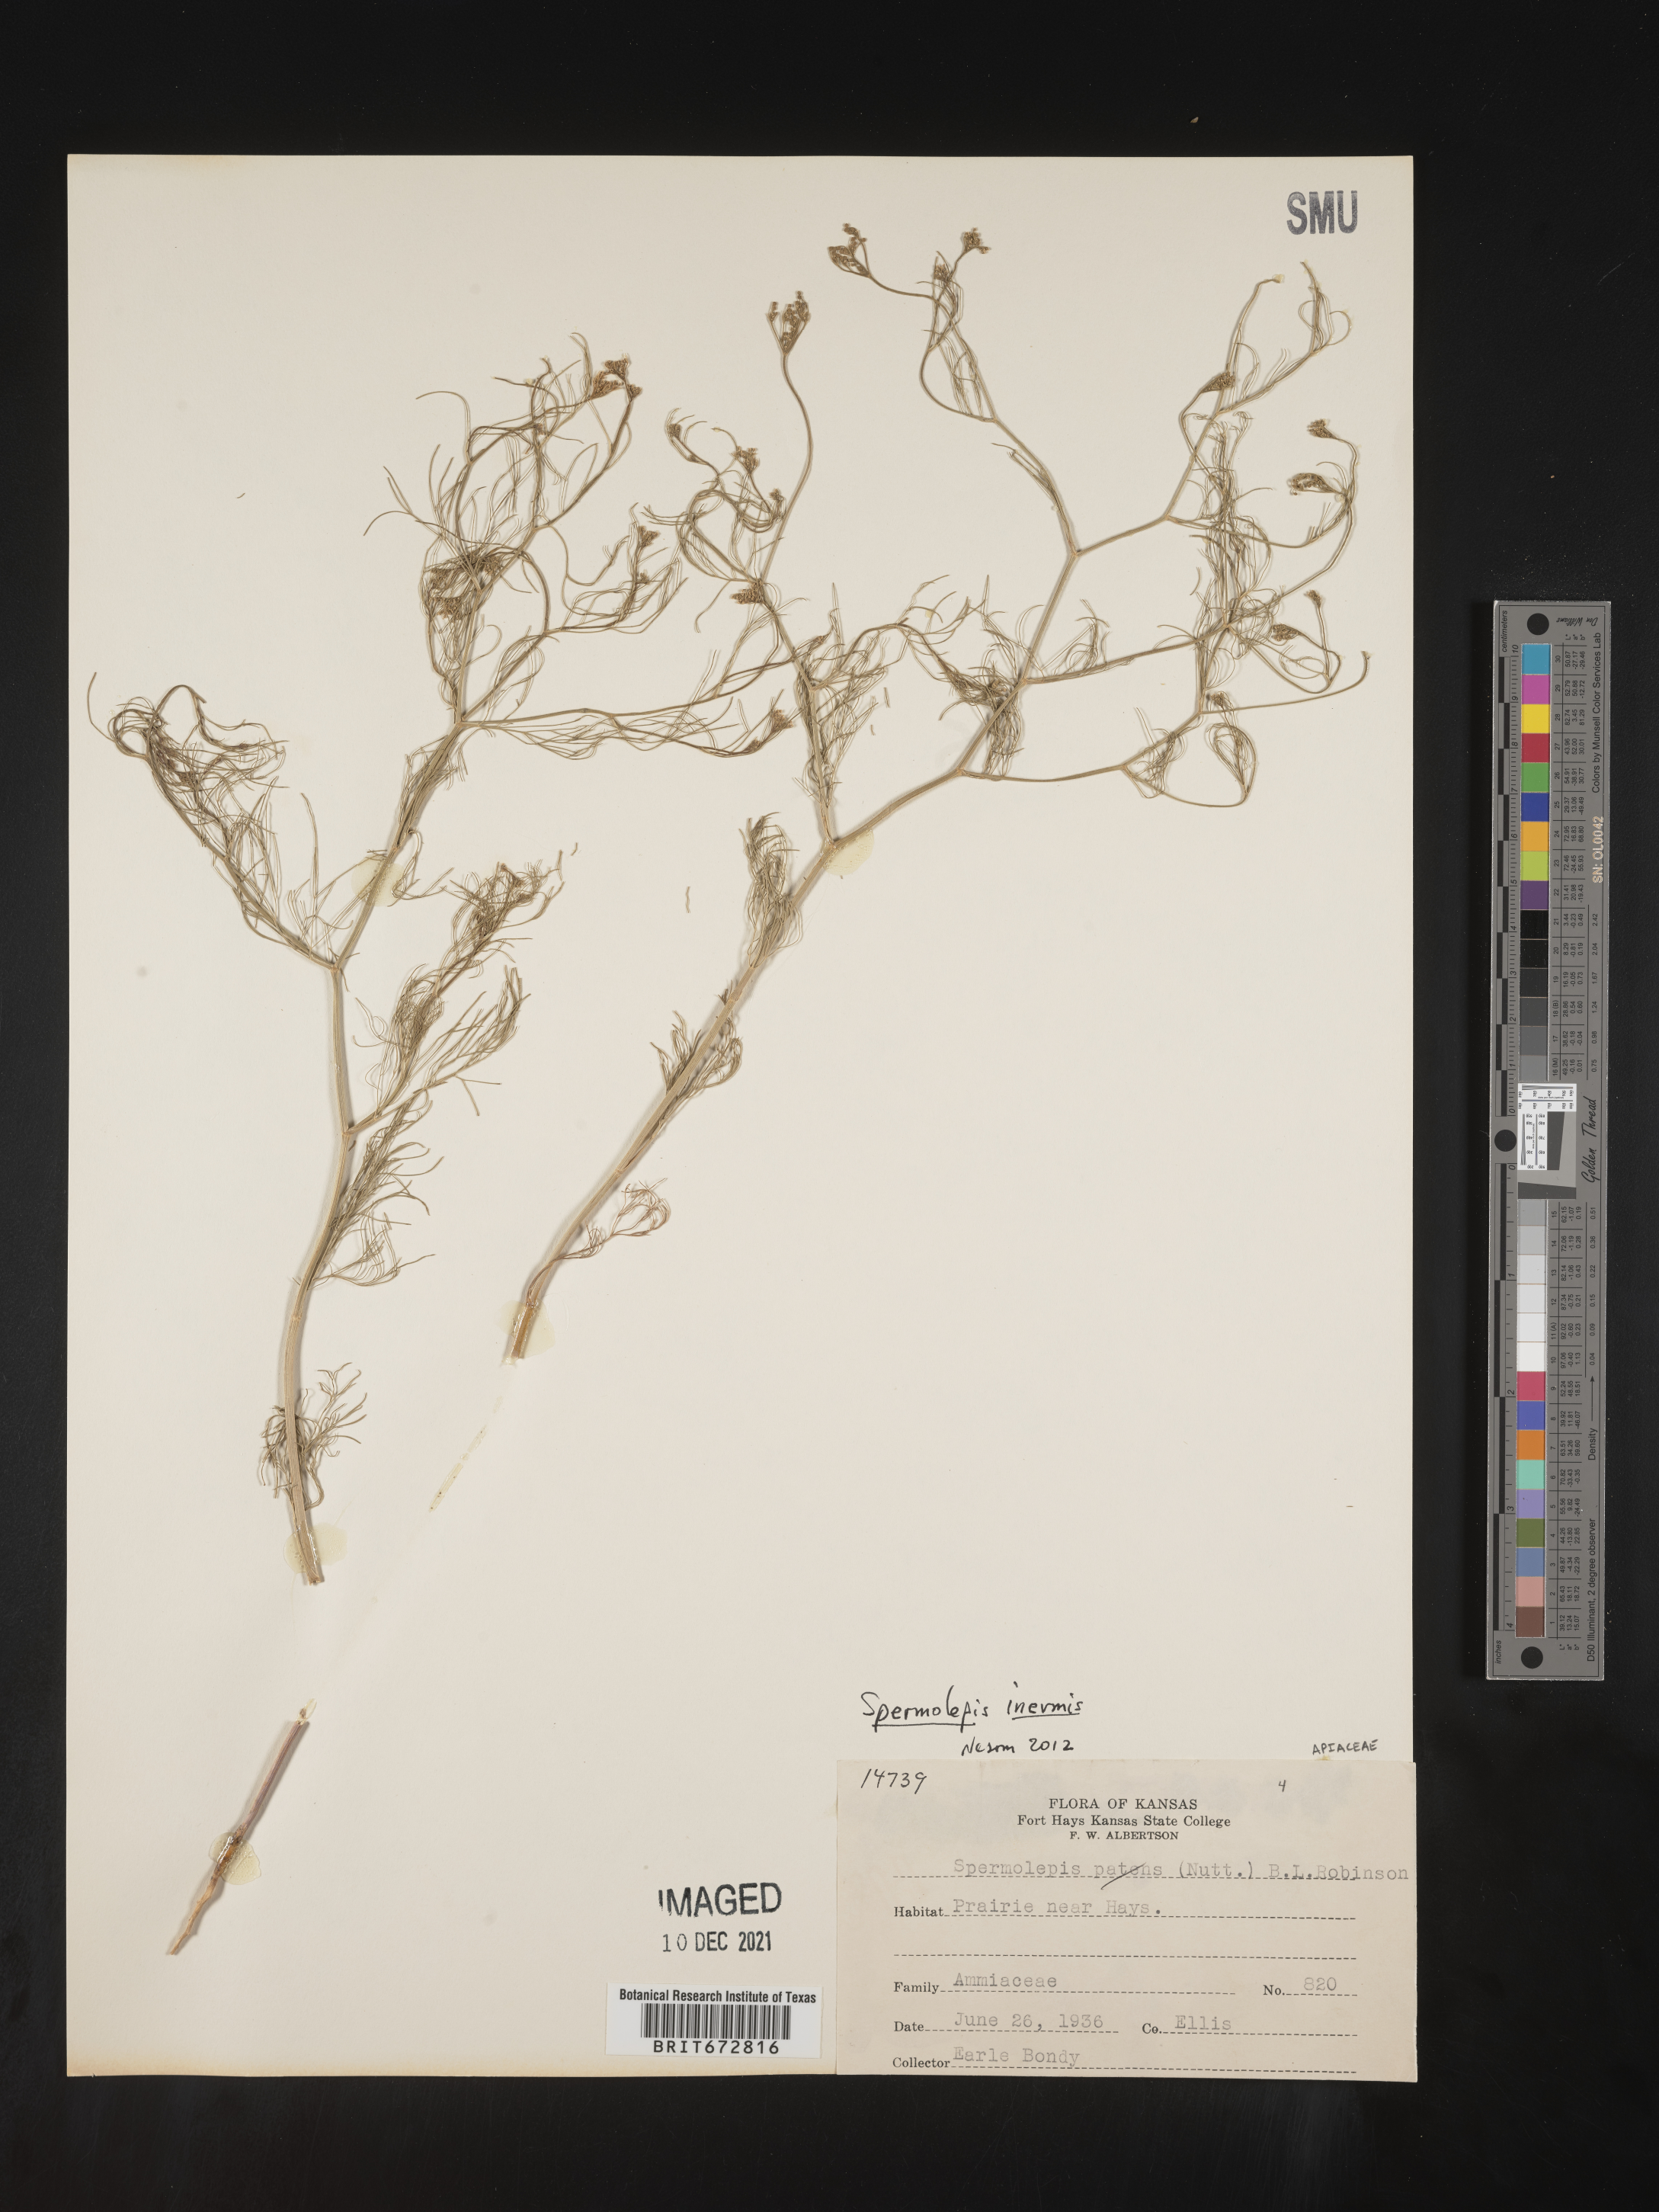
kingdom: Plantae
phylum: Tracheophyta
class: Magnoliopsida
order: Apiales
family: Apiaceae
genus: Spermolepis
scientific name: Spermolepis inermis
